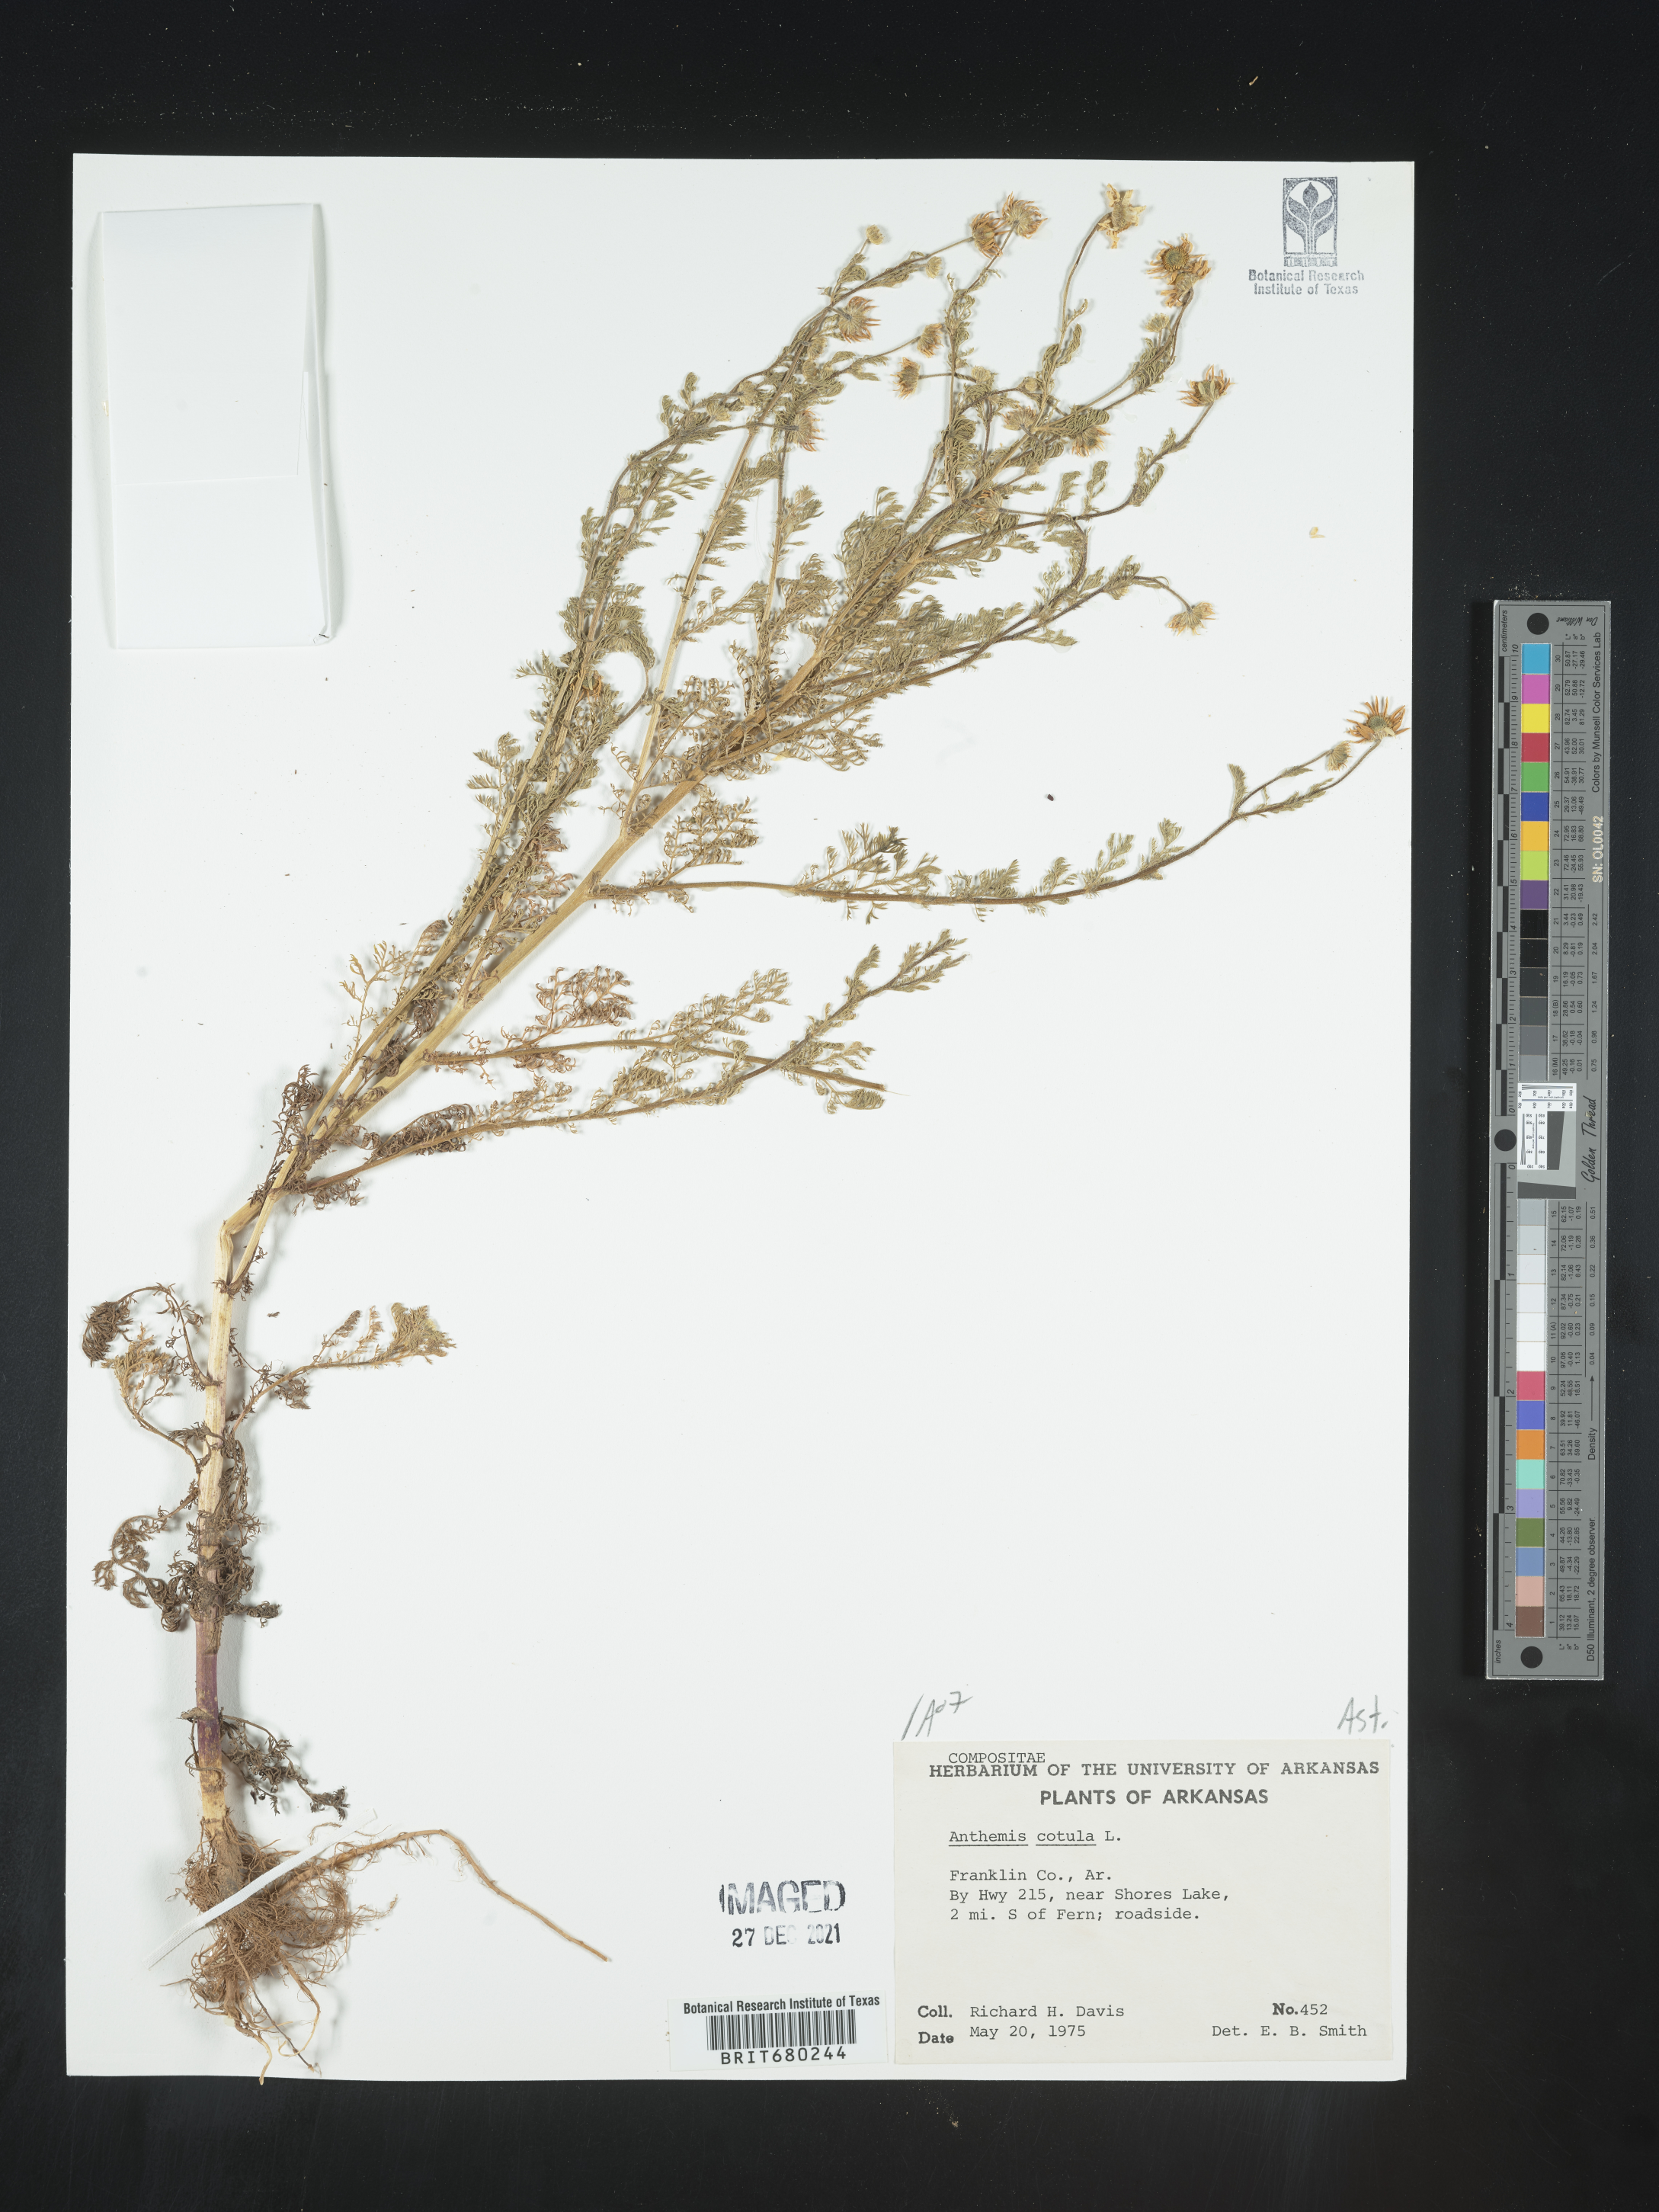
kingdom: Plantae
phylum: Tracheophyta
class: Magnoliopsida
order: Asterales
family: Asteraceae
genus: Anthemis
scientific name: Anthemis cotula
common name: Stinking chamomile
